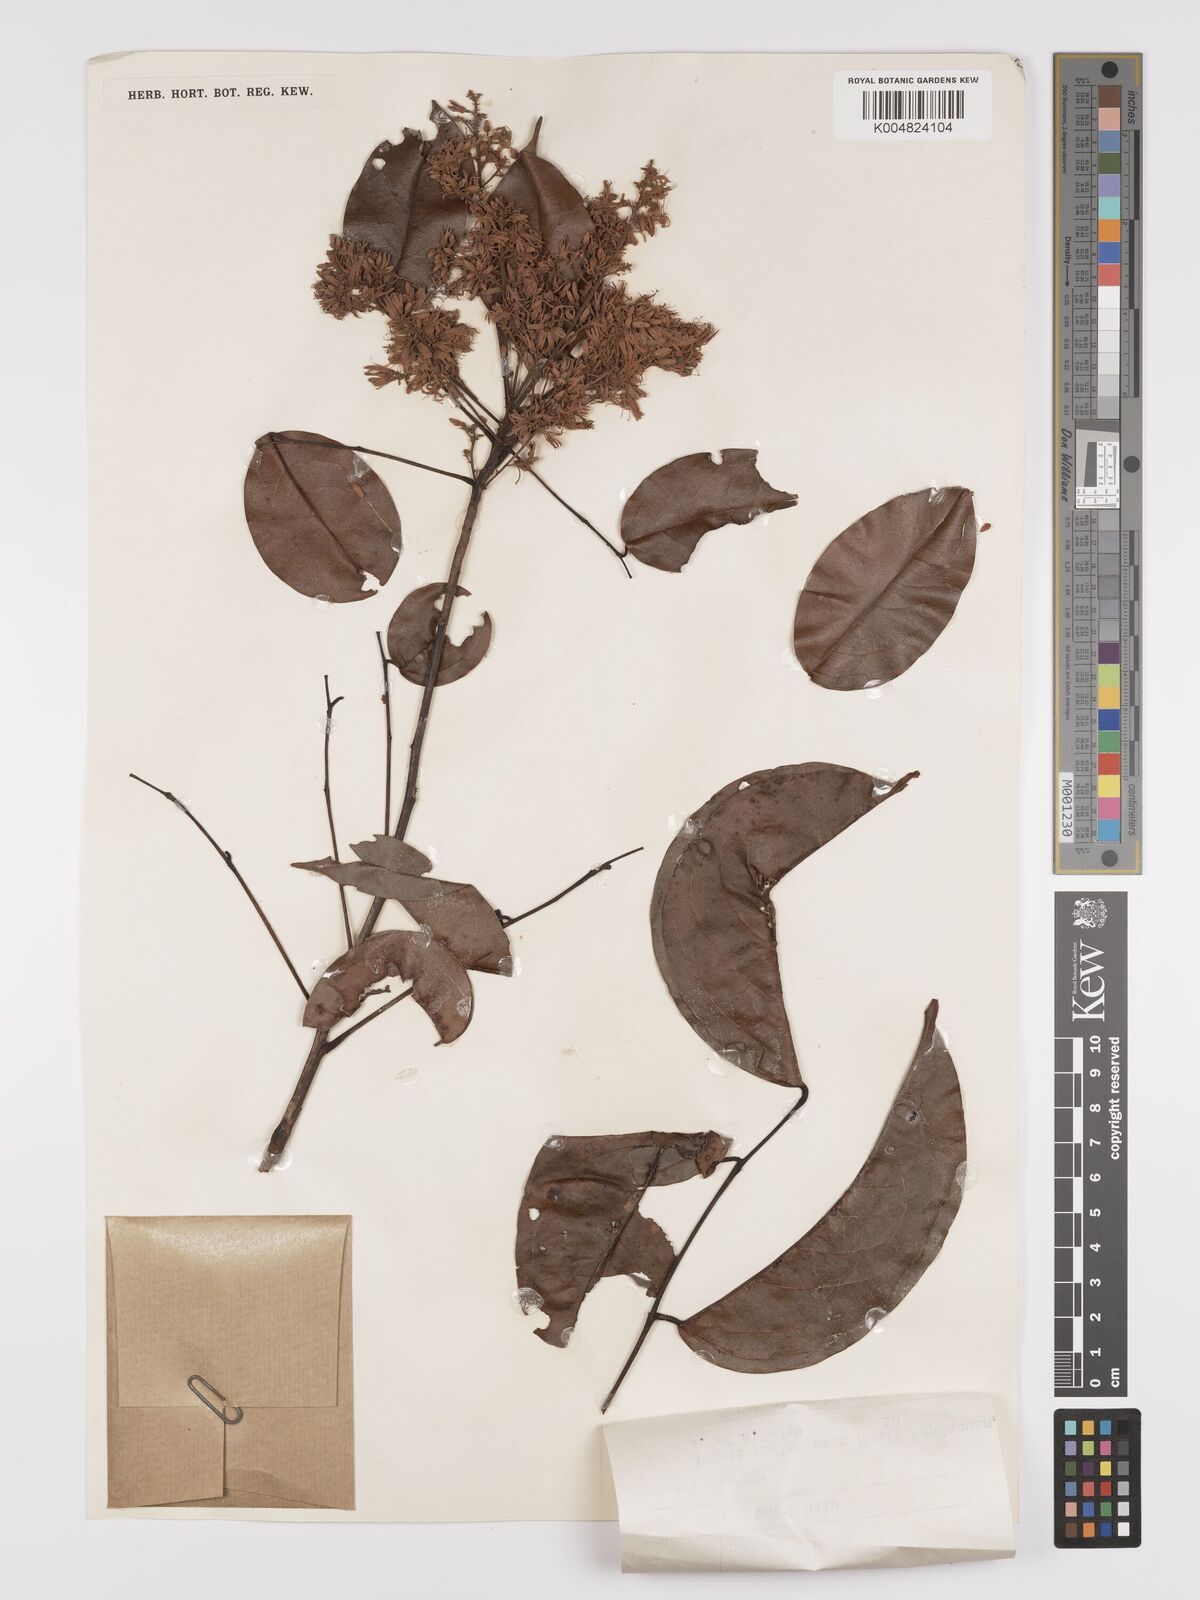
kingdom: Plantae
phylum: Tracheophyta
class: Magnoliopsida
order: Oxalidales
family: Connaraceae
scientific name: Connaraceae
